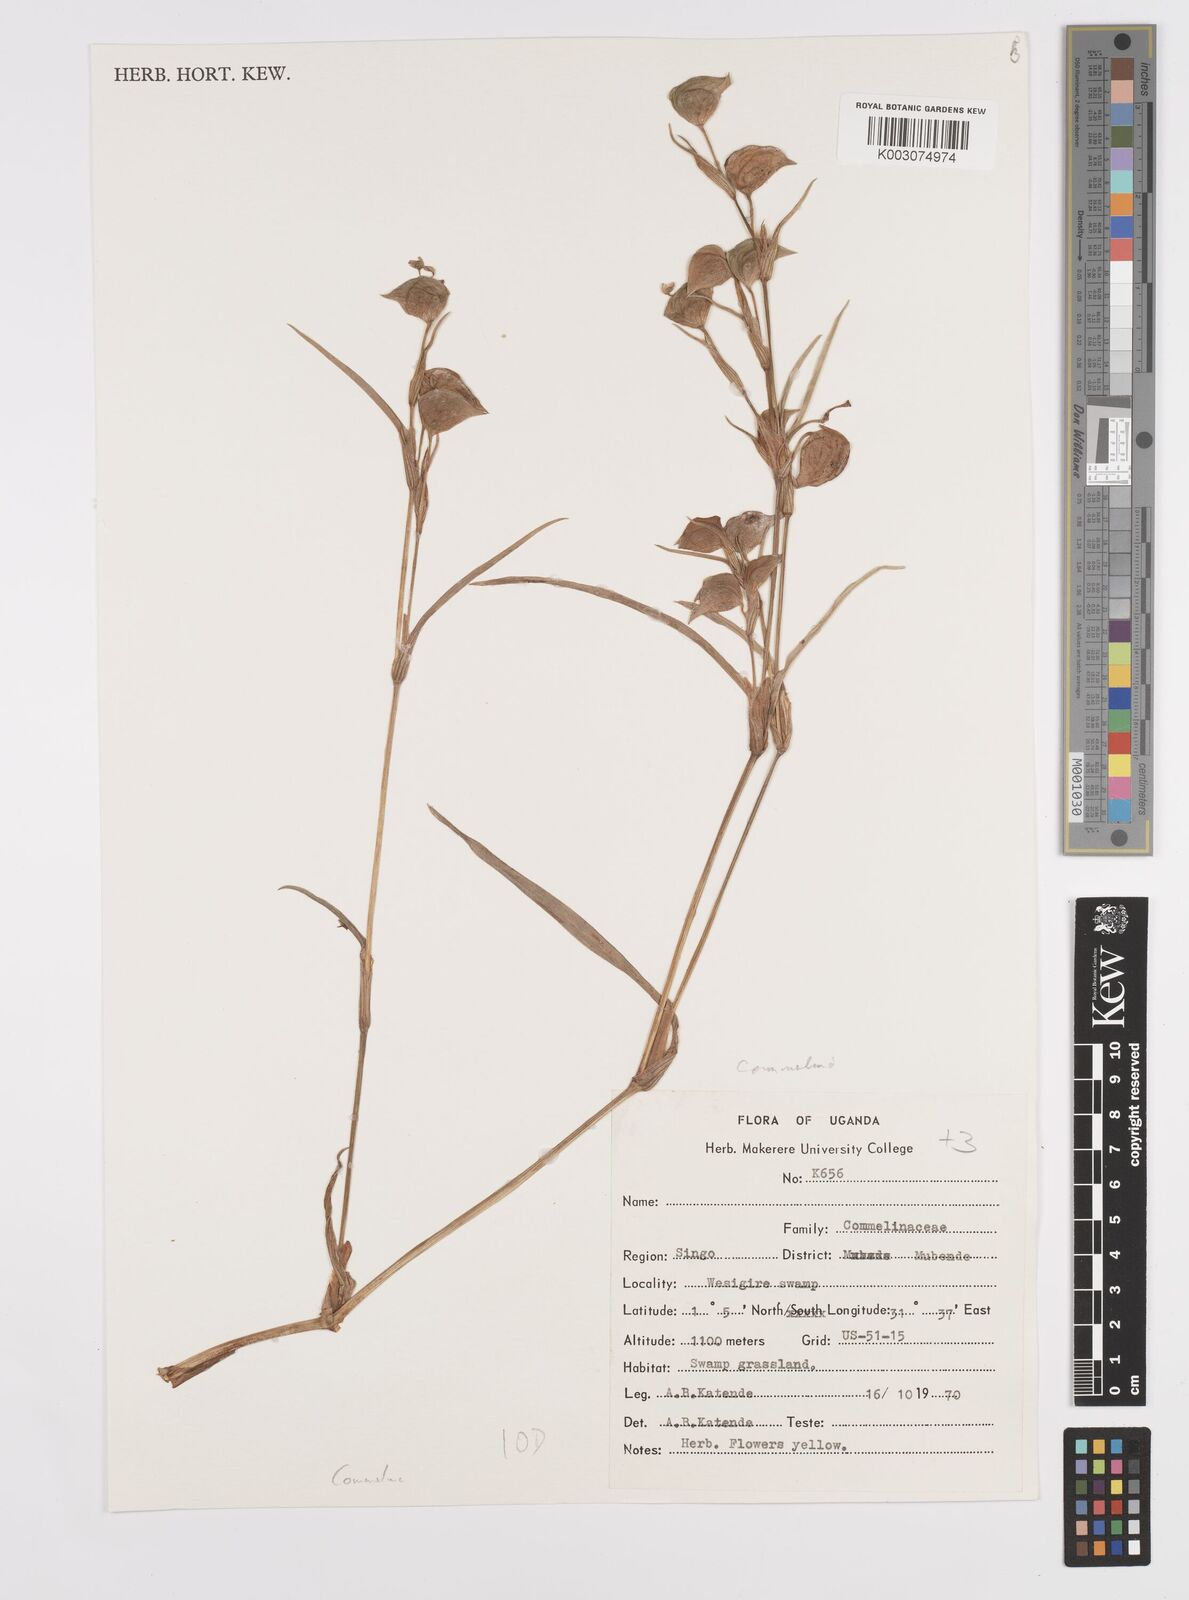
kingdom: Plantae
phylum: Tracheophyta
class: Liliopsida
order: Commelinales
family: Commelinaceae
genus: Commelina
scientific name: Commelina
